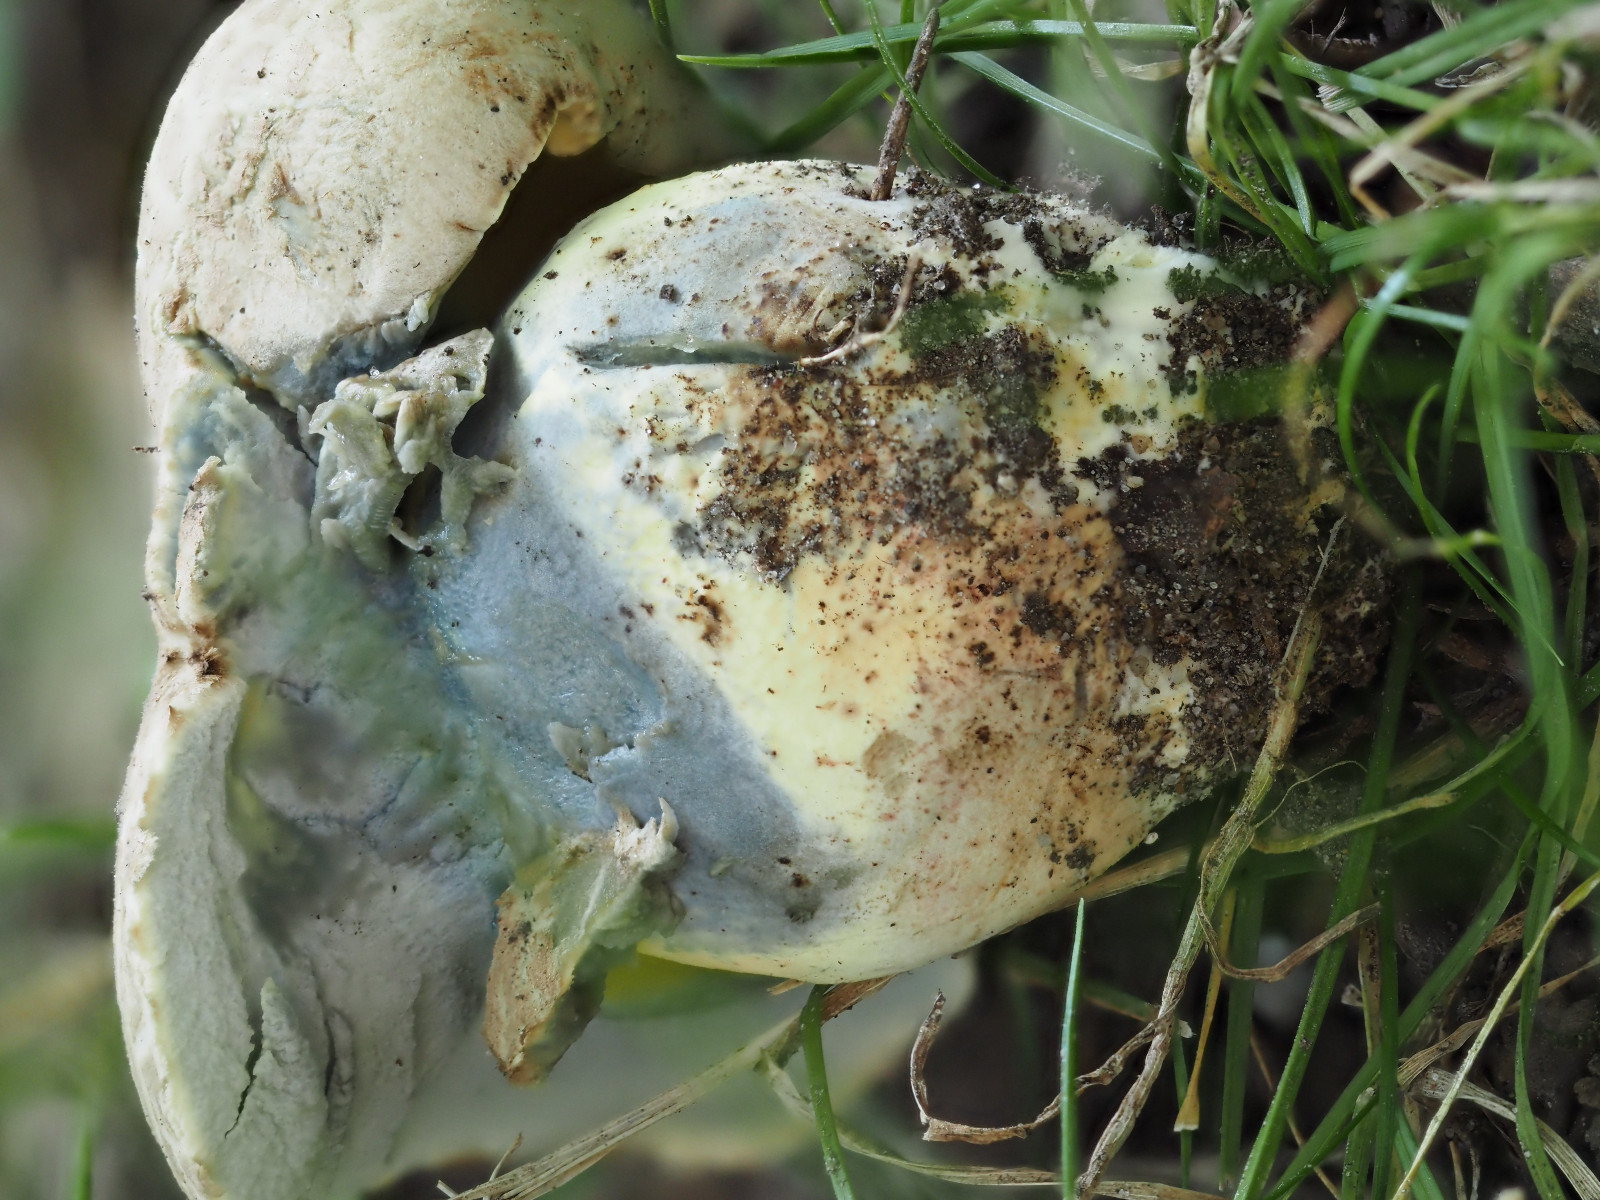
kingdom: Fungi
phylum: Basidiomycota
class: Agaricomycetes
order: Boletales
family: Boletaceae
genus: Caloboletus
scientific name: Caloboletus radicans
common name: rod-rørhat
